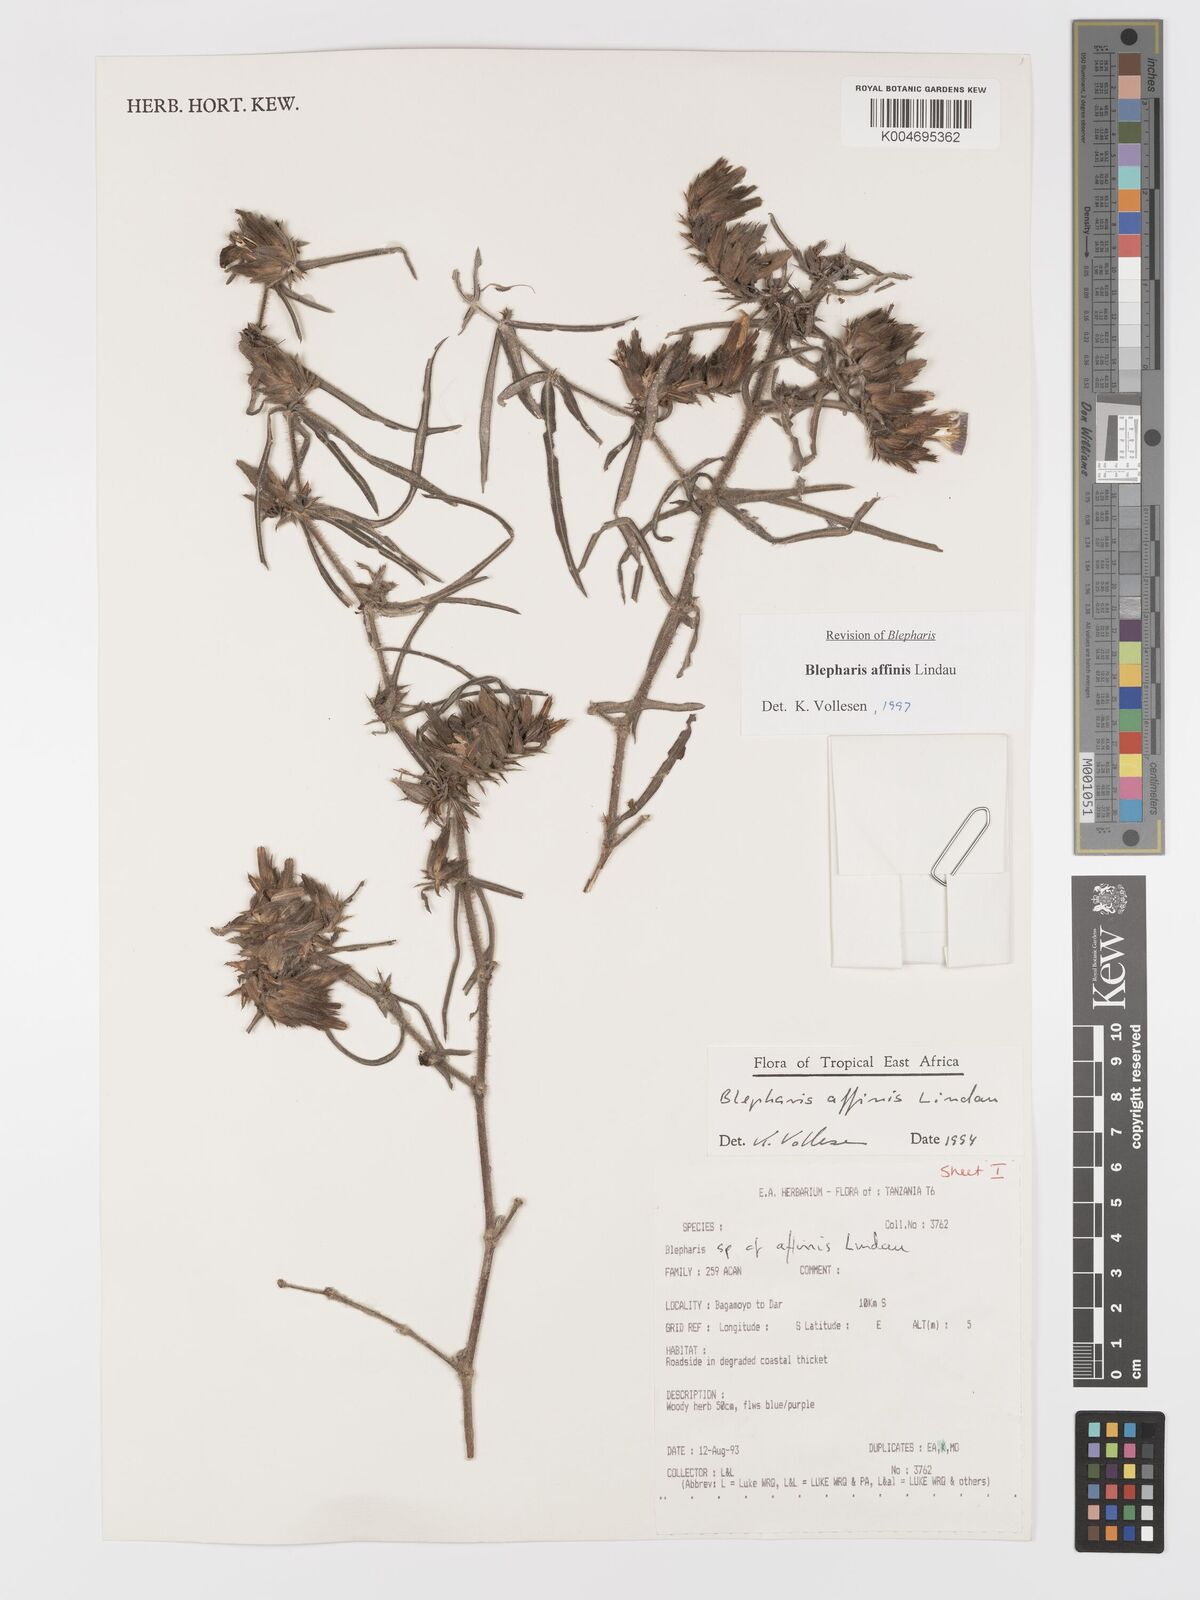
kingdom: Plantae
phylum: Tracheophyta
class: Magnoliopsida
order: Lamiales
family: Acanthaceae
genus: Blepharis
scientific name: Blepharis affinis
